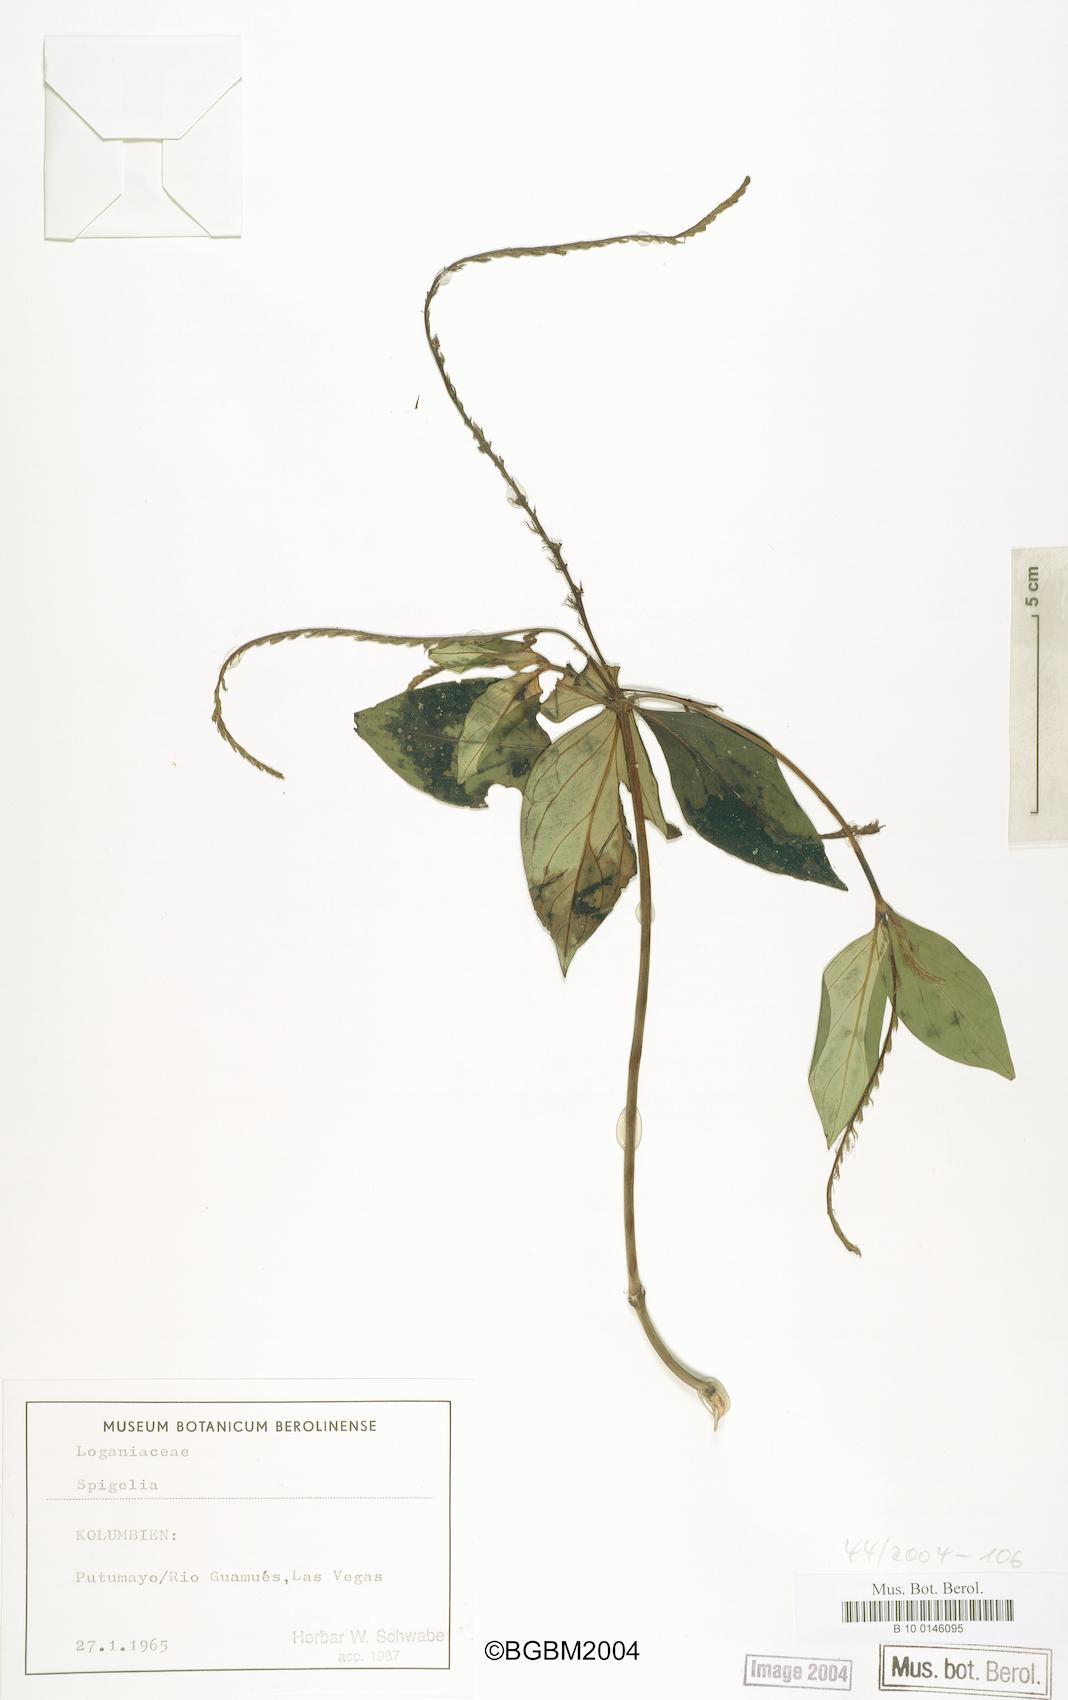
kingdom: Plantae
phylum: Tracheophyta
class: Magnoliopsida
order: Gentianales
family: Loganiaceae
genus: Spigelia
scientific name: Spigelia
